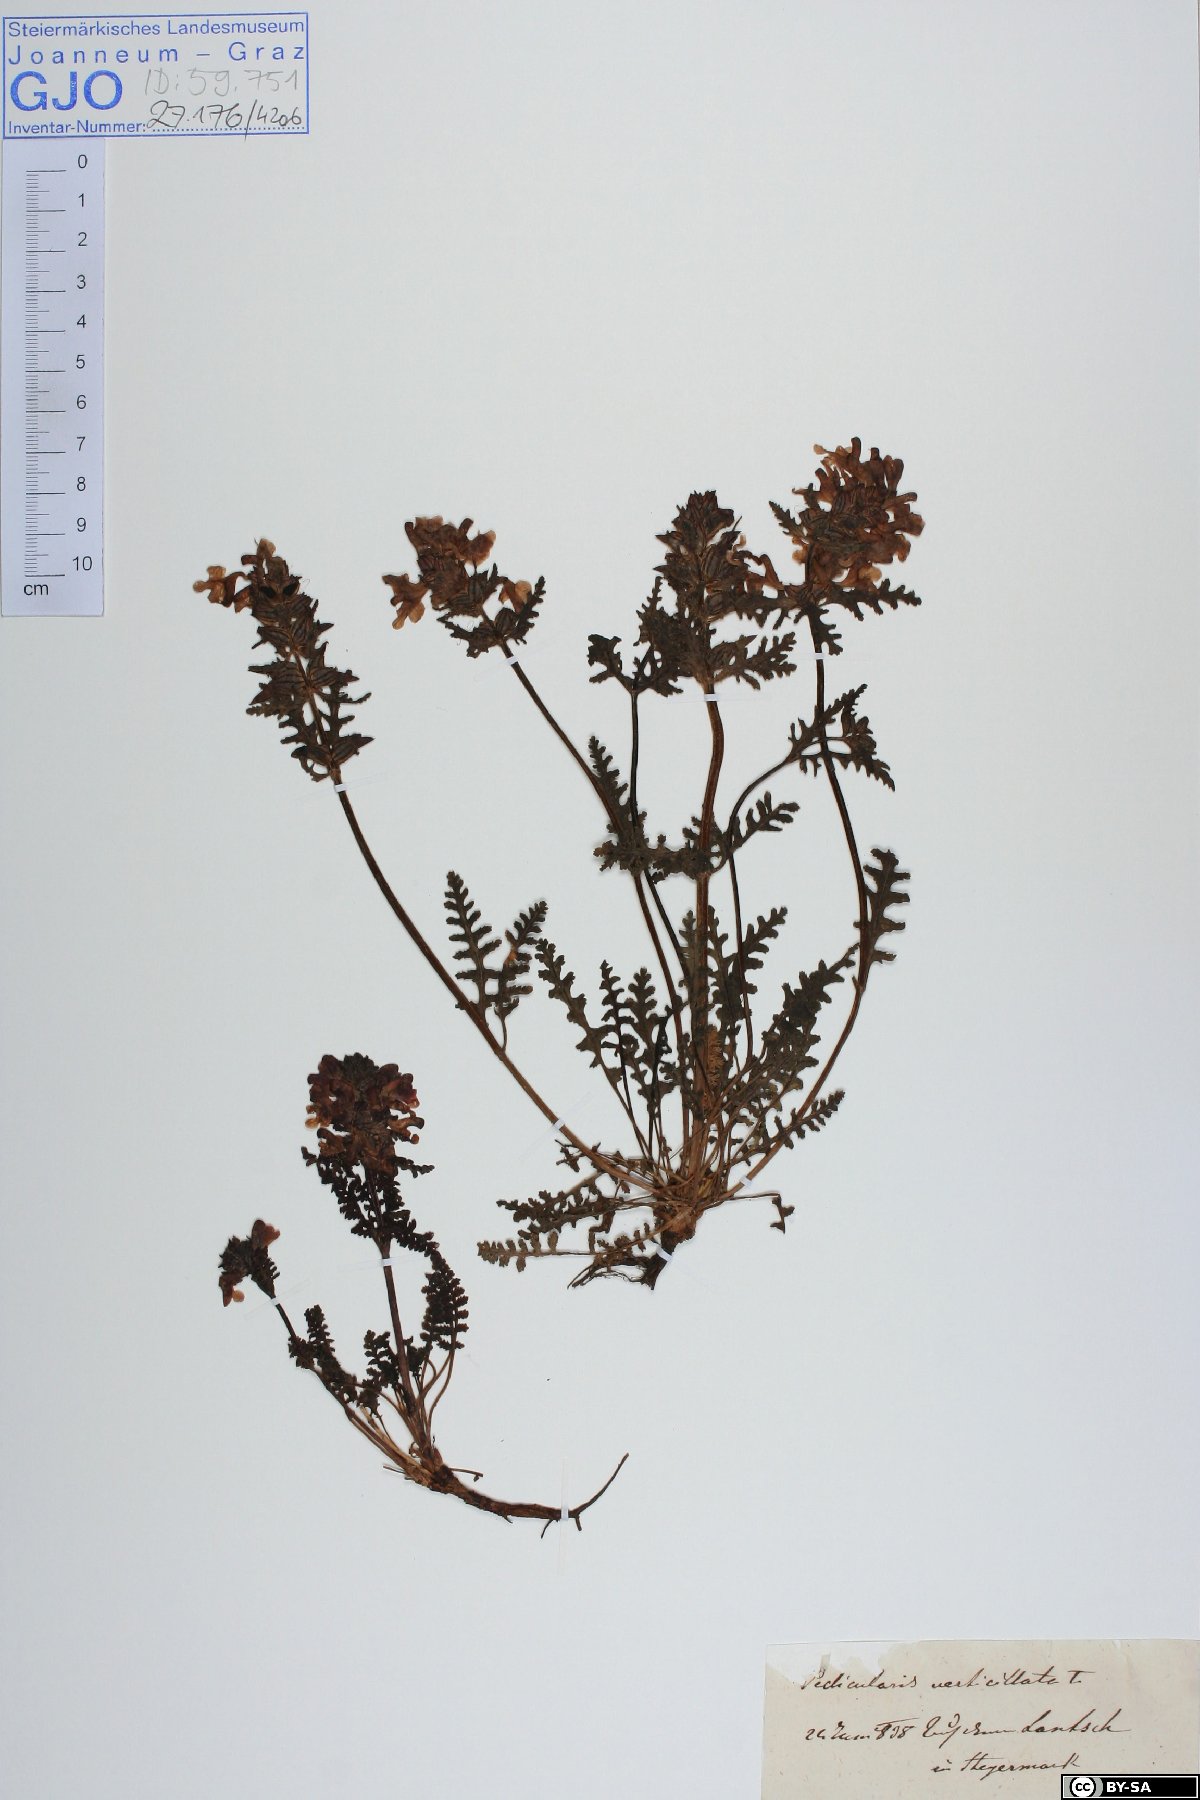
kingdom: Plantae
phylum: Tracheophyta
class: Magnoliopsida
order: Lamiales
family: Orobanchaceae
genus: Pedicularis
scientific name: Pedicularis verticillata
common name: Whorled lousewort
